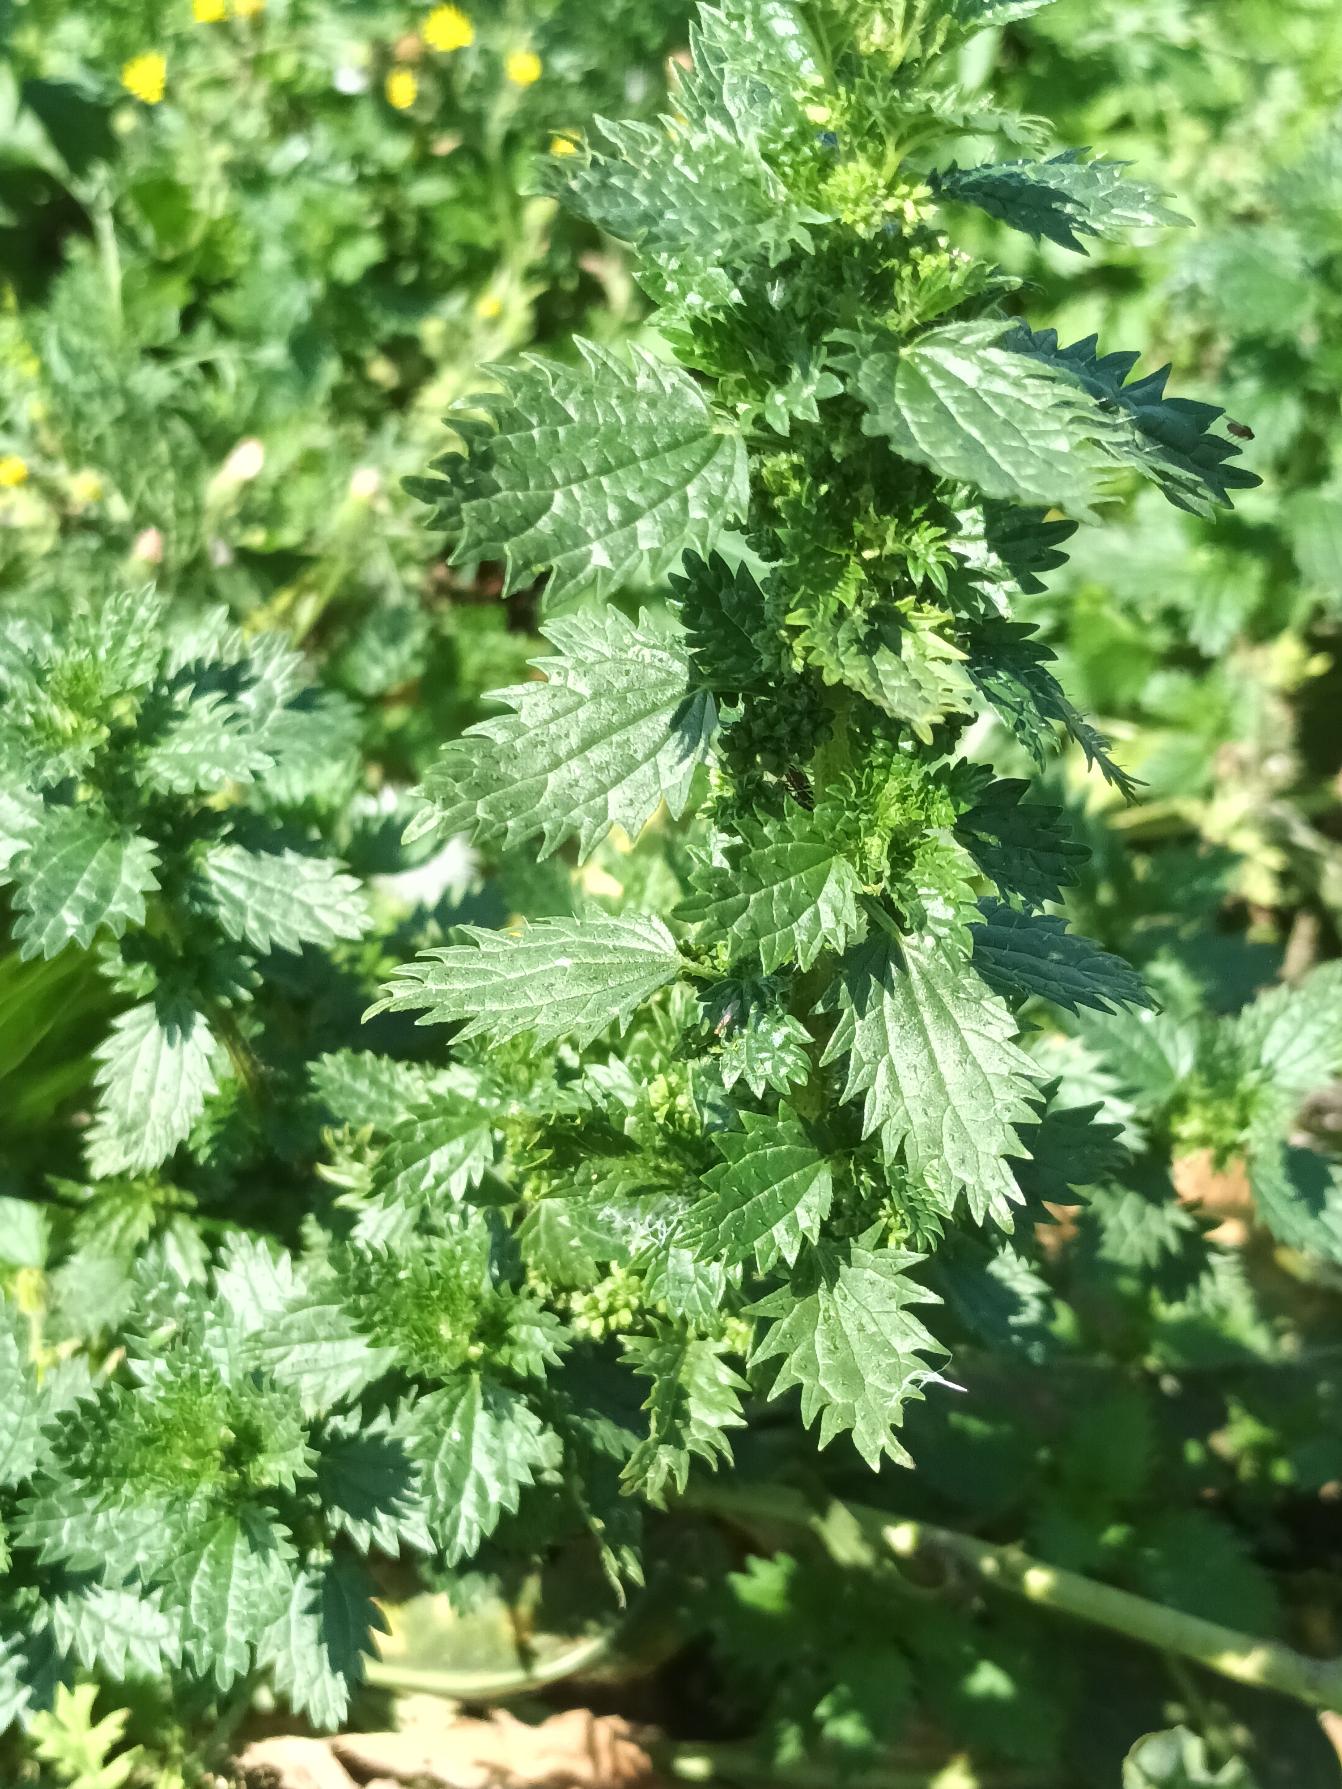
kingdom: Plantae
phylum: Tracheophyta
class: Magnoliopsida
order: Rosales
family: Urticaceae
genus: Urtica
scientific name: Urtica urens
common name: Liden nælde
